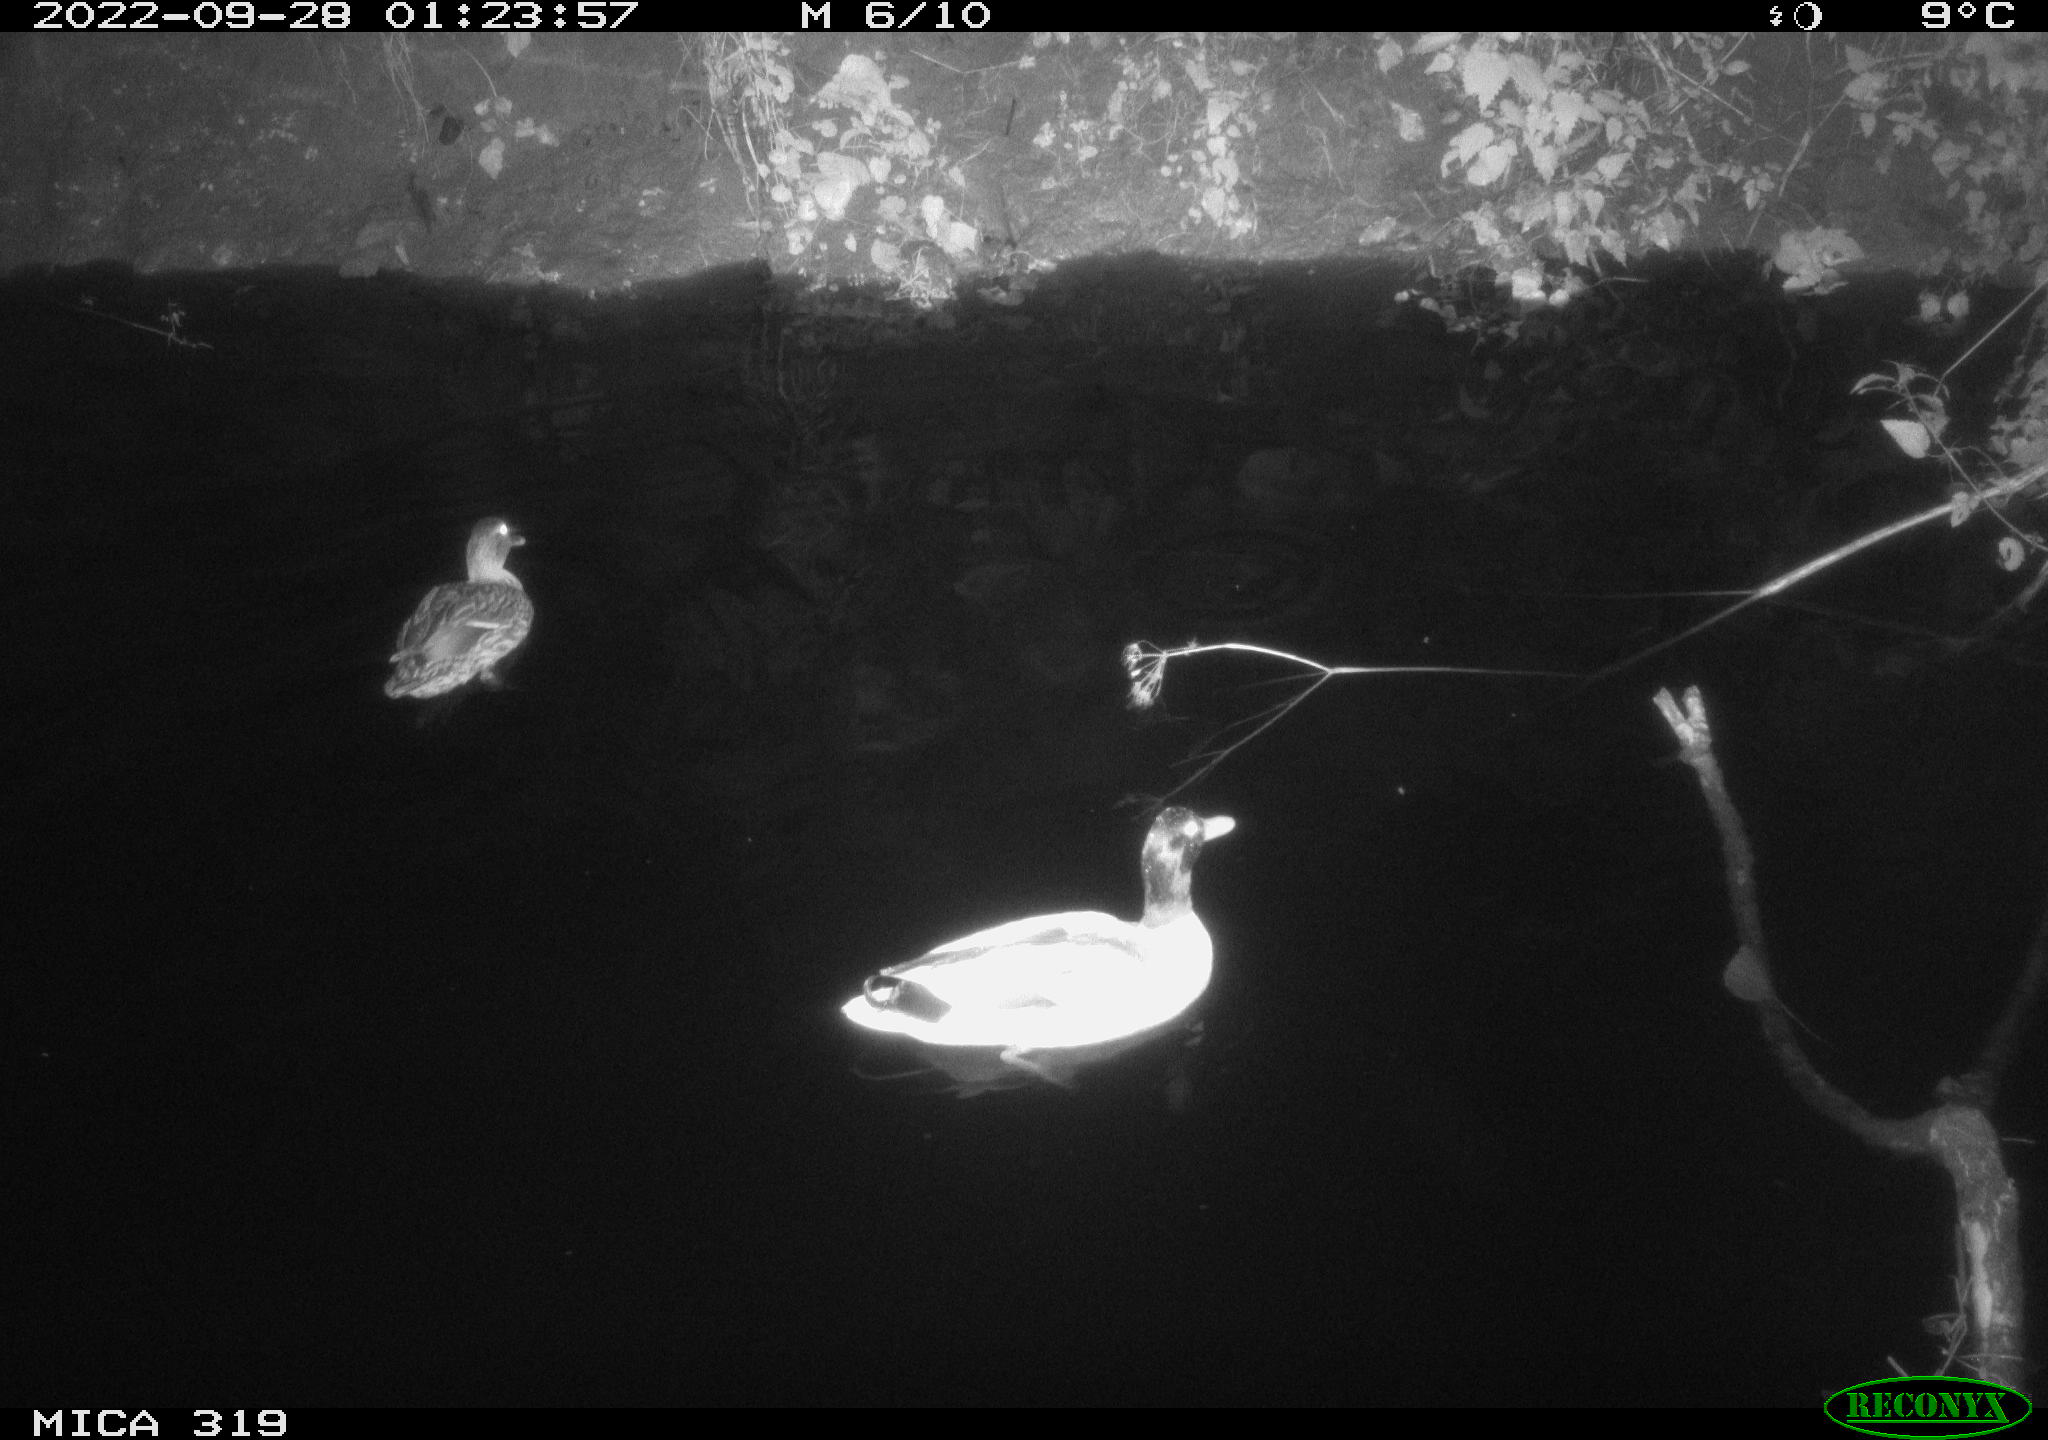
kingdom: Animalia
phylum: Chordata
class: Aves
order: Anseriformes
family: Anatidae
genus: Anas
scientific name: Anas
